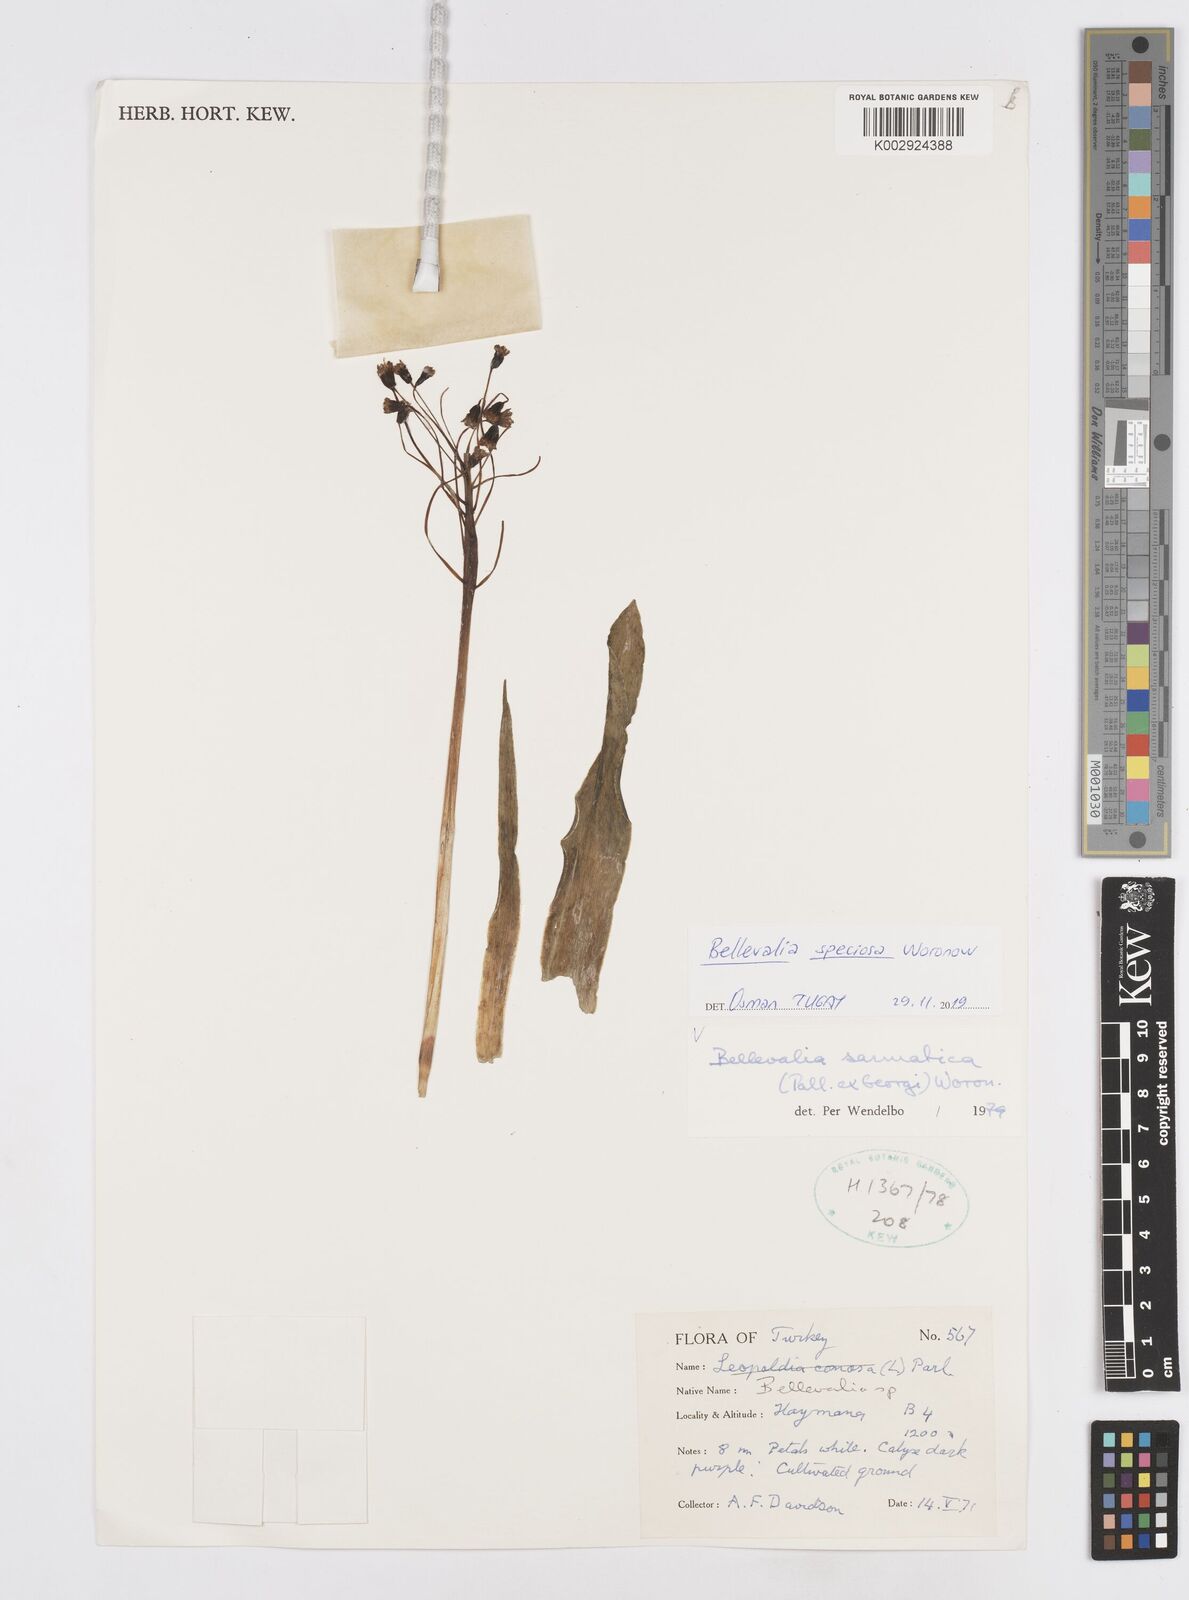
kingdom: Plantae
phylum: Tracheophyta
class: Liliopsida
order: Asparagales
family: Asparagaceae
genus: Bellevalia
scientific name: Bellevalia speciosa
